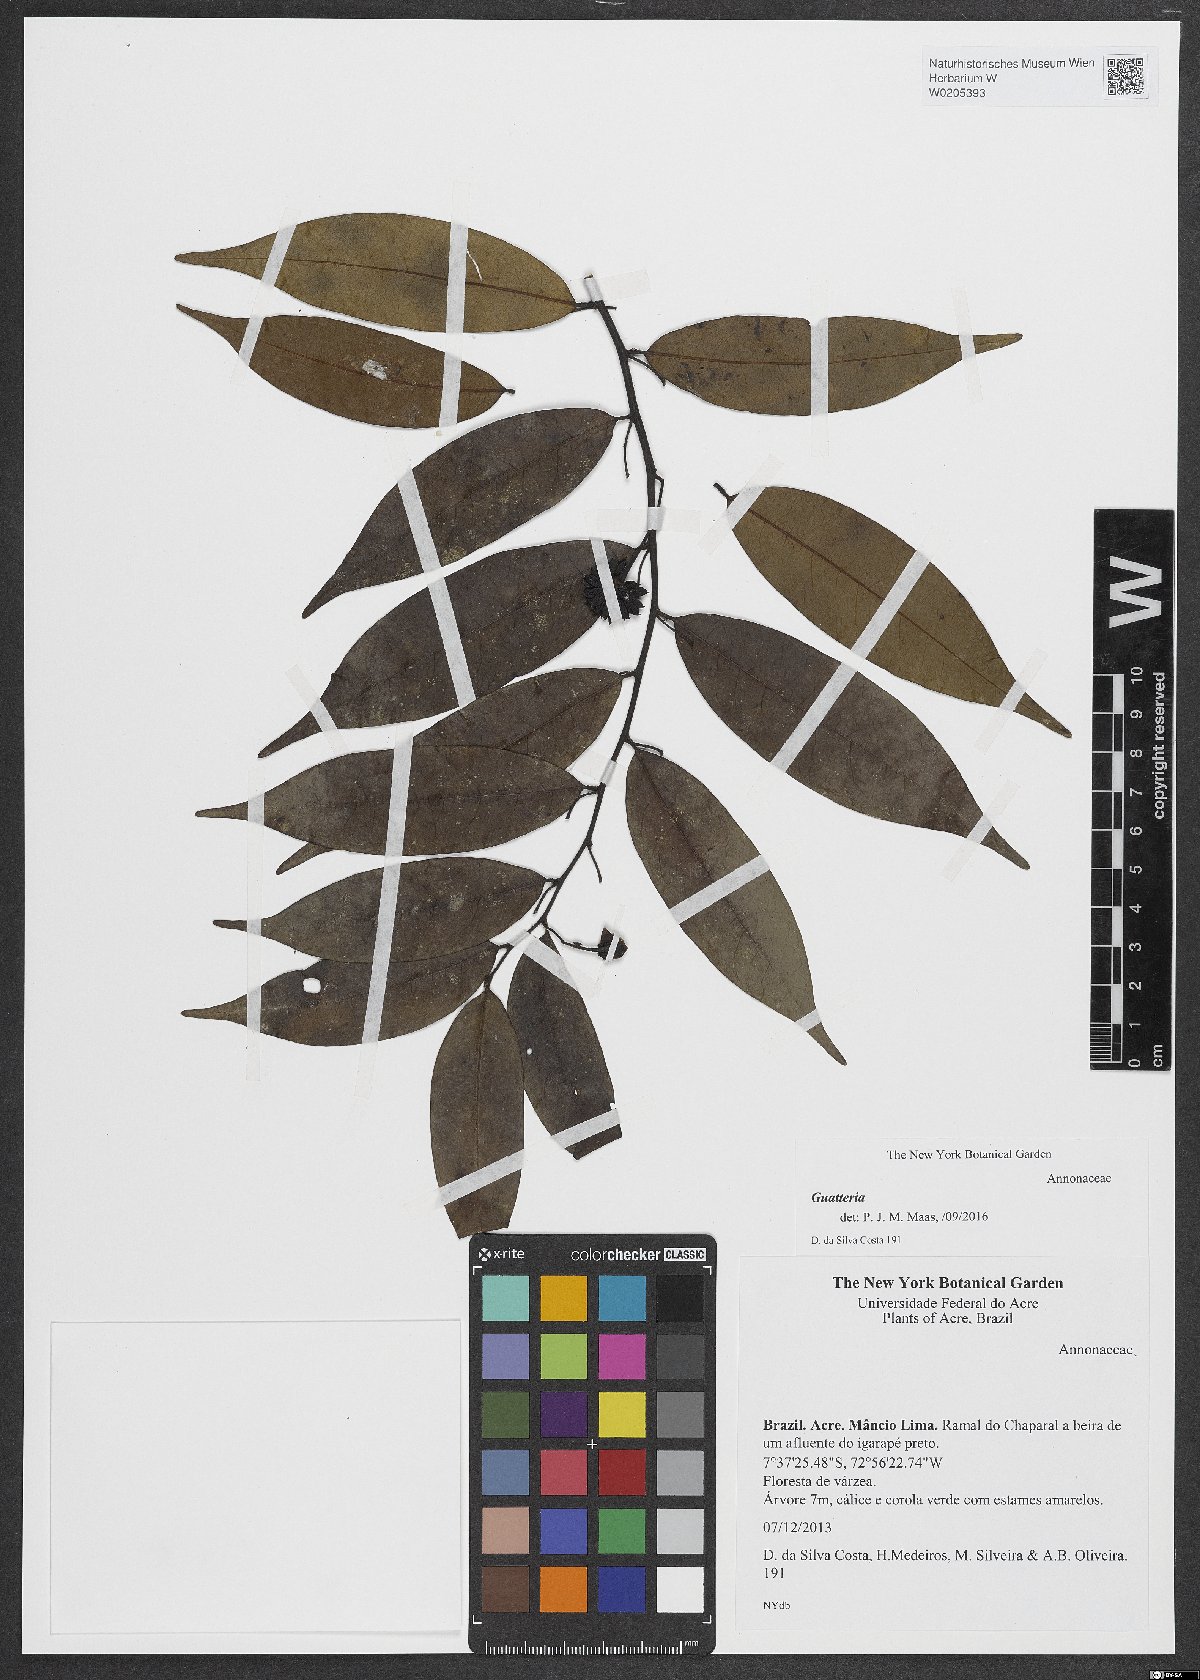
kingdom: Plantae
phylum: Tracheophyta
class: Magnoliopsida
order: Magnoliales
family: Annonaceae
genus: Guatteria
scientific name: Guatteria
